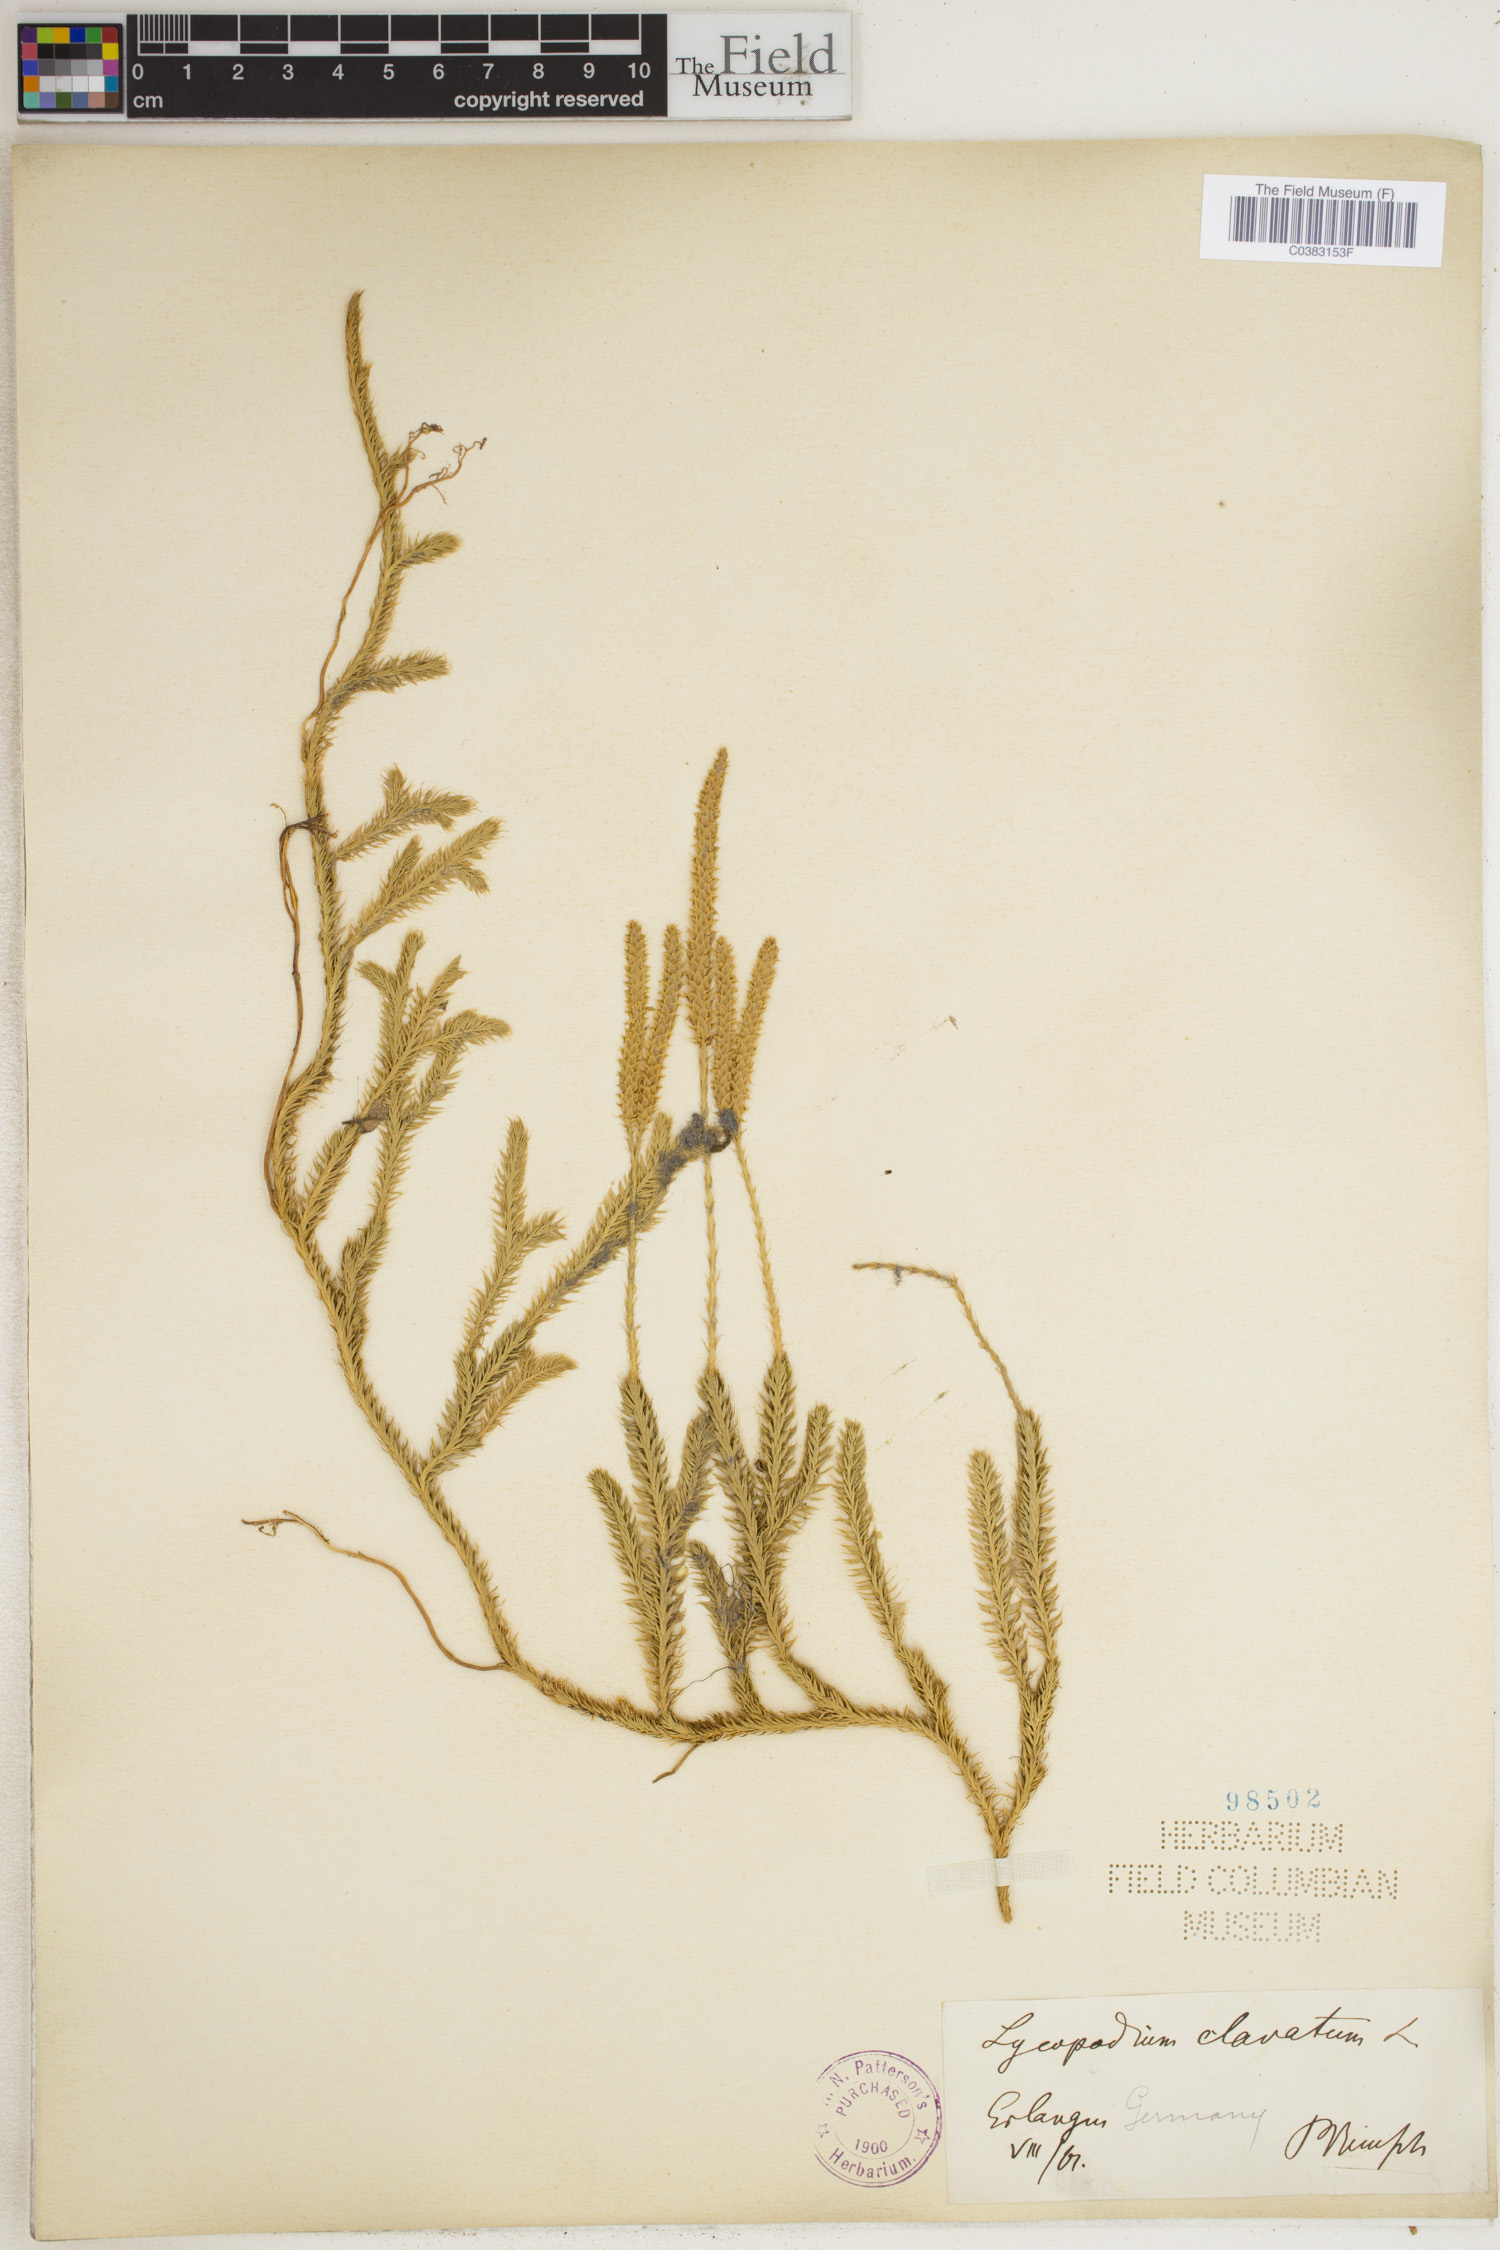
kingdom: Plantae
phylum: Tracheophyta
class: Lycopodiopsida
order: Lycopodiales
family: Lycopodiaceae
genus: Lycopodium
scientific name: Lycopodium clavatum
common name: Stag's-horn clubmoss
